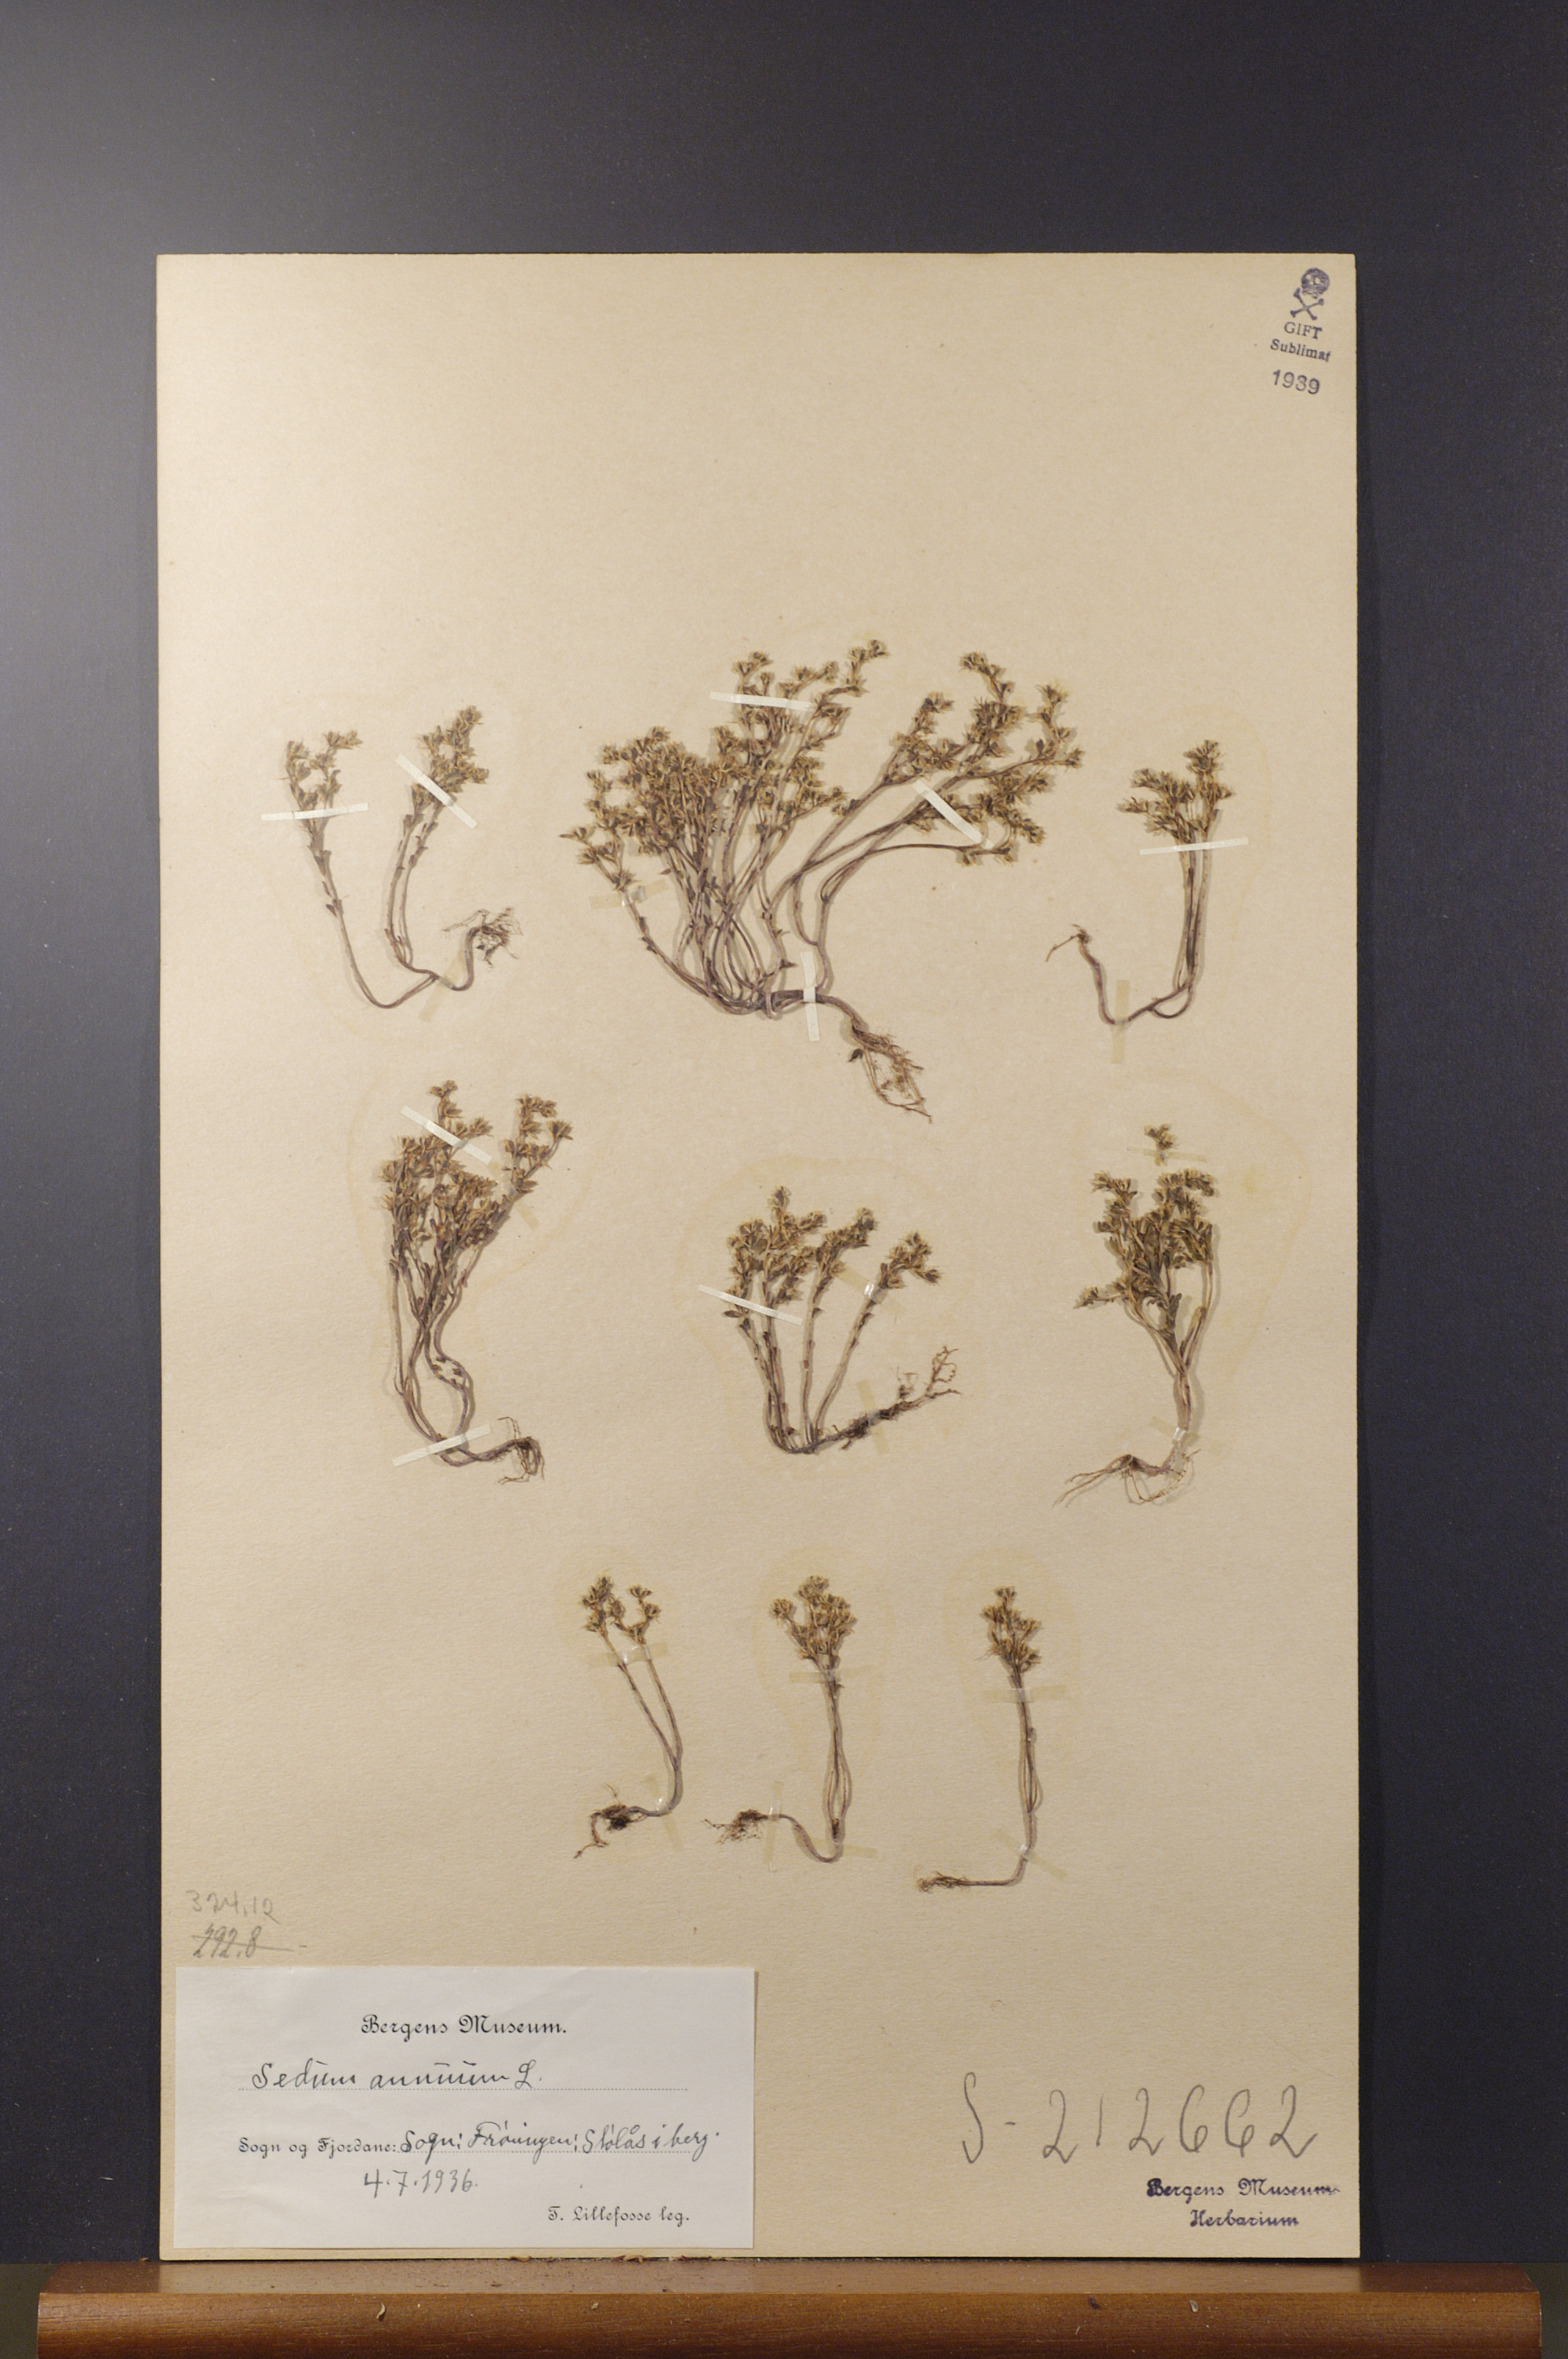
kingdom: Plantae
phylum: Tracheophyta
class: Magnoliopsida
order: Saxifragales
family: Crassulaceae
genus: Sedum
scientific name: Sedum annuum
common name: Annual stonecrop
